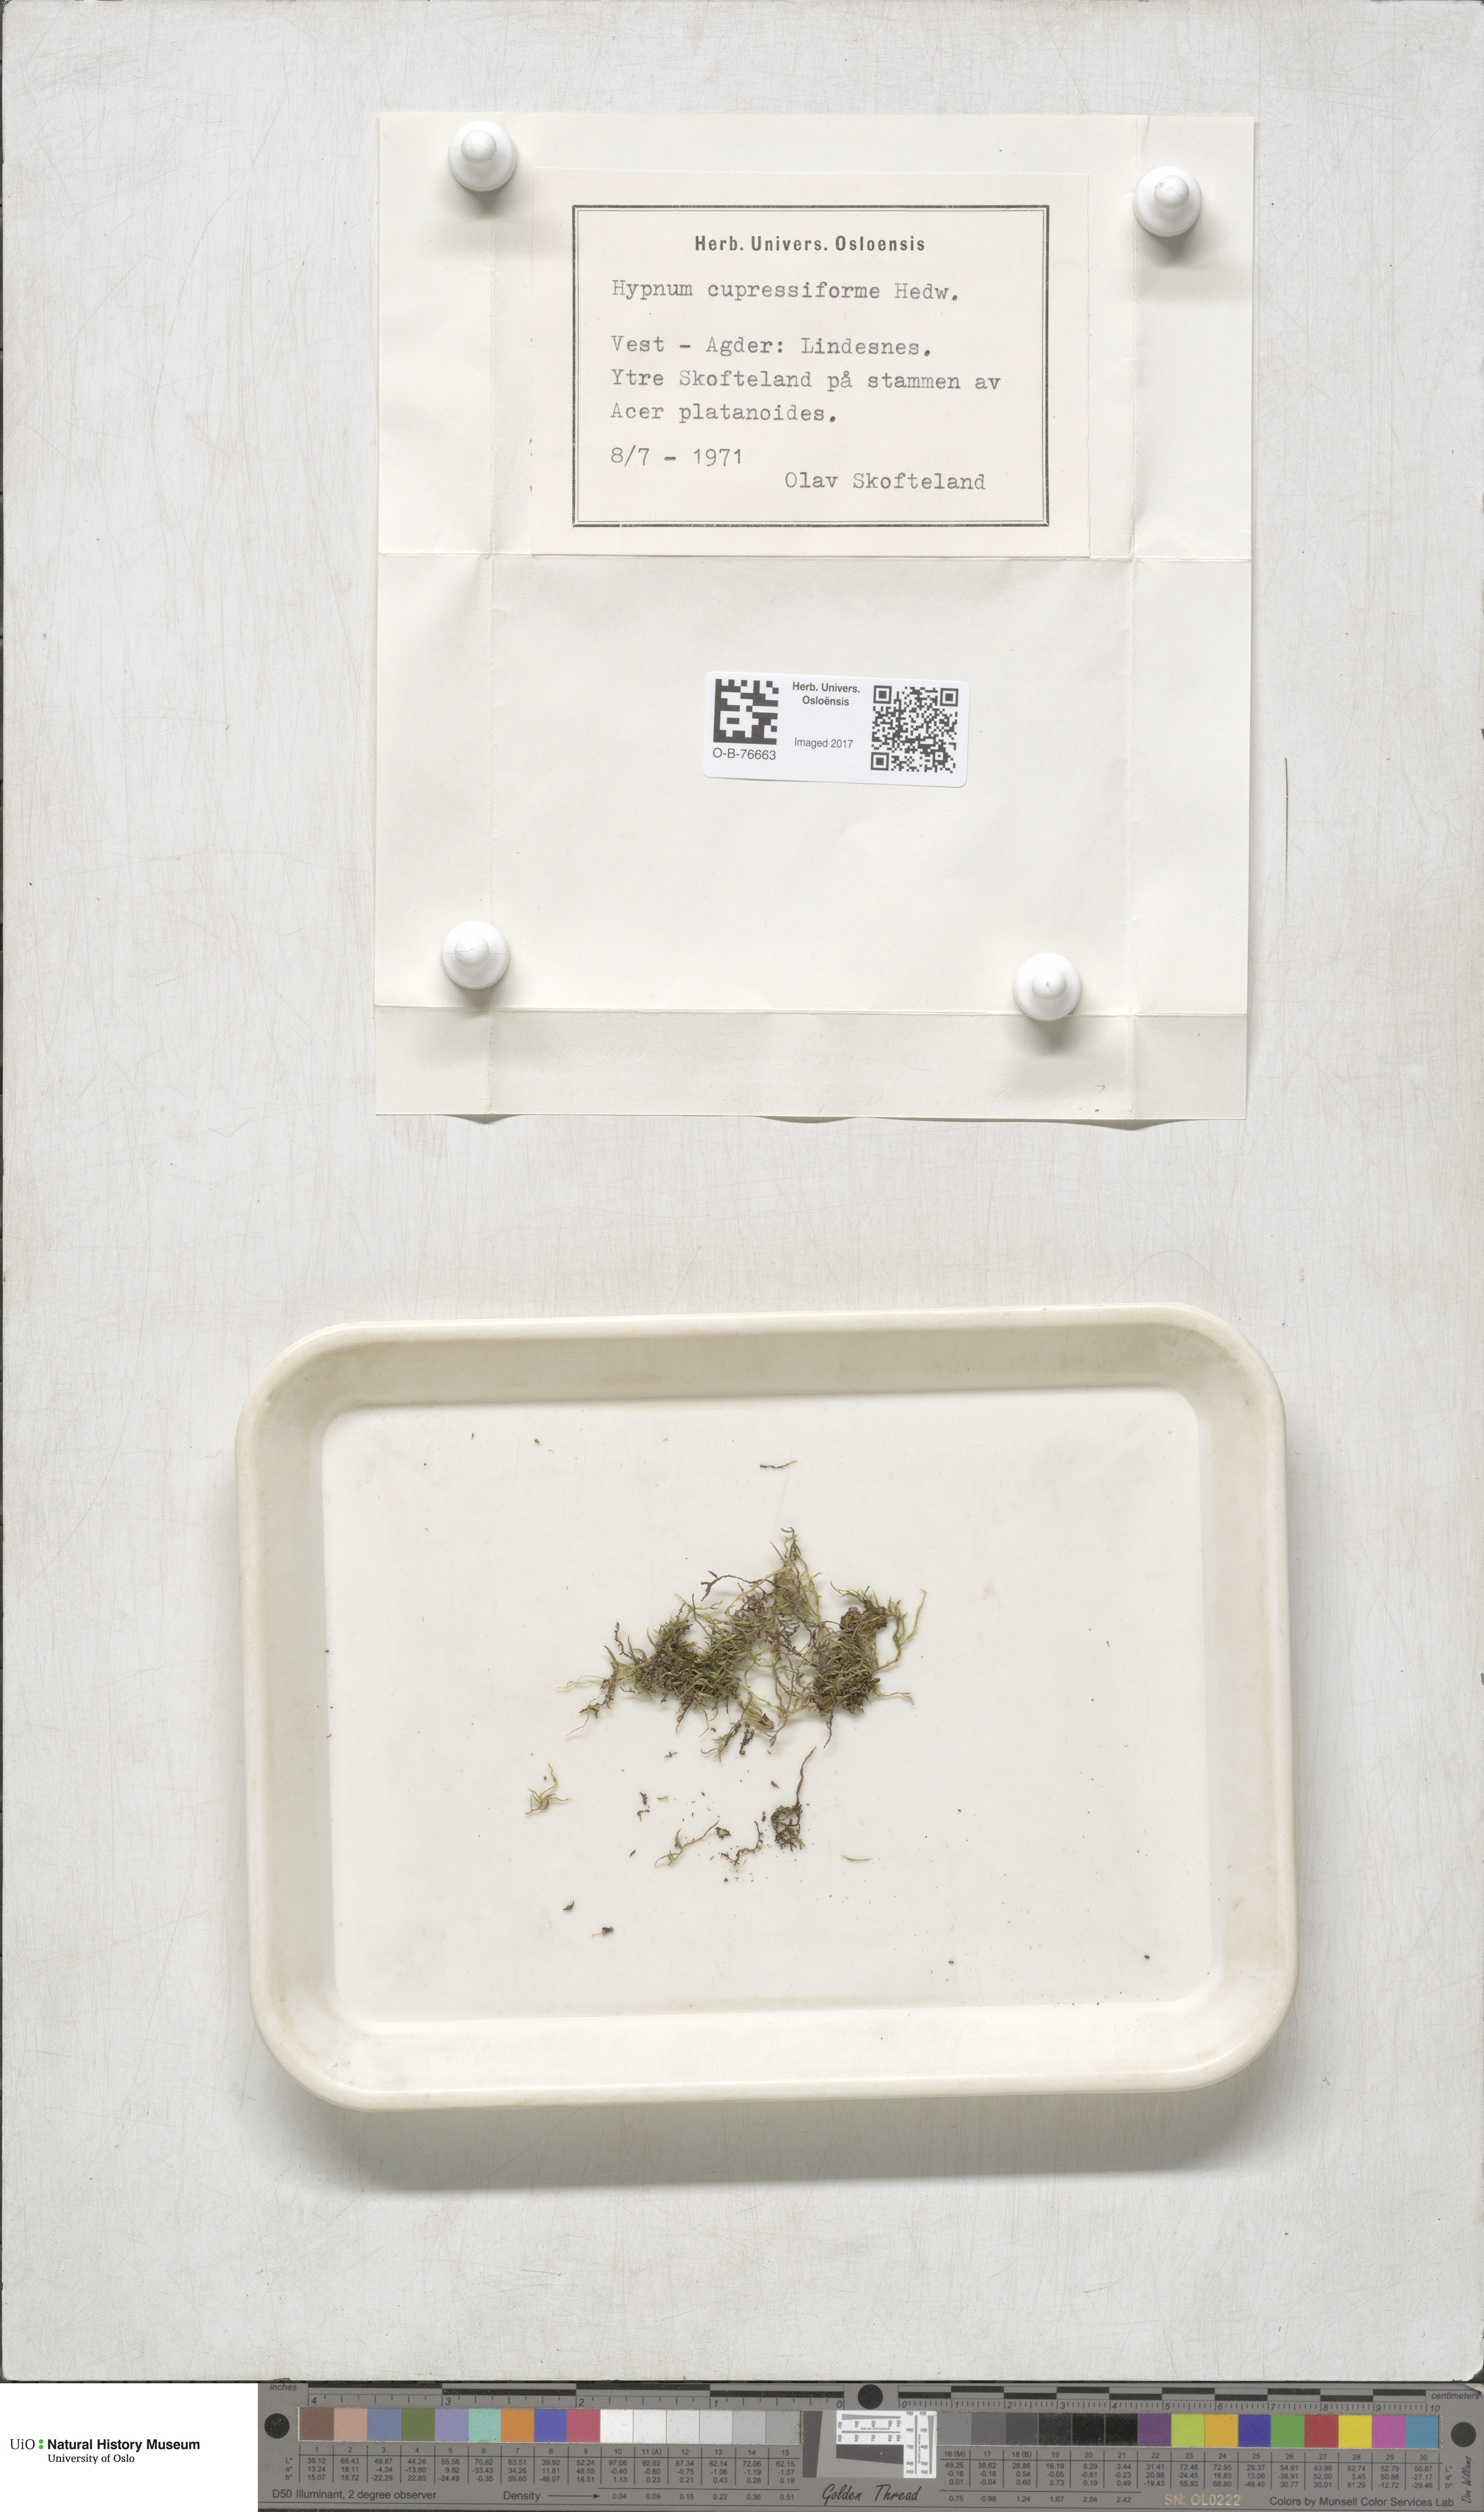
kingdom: Plantae
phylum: Bryophyta
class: Bryopsida
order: Hypnales
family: Hypnaceae
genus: Hypnum
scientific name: Hypnum cupressiforme
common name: Cypress-leaved plait-moss
